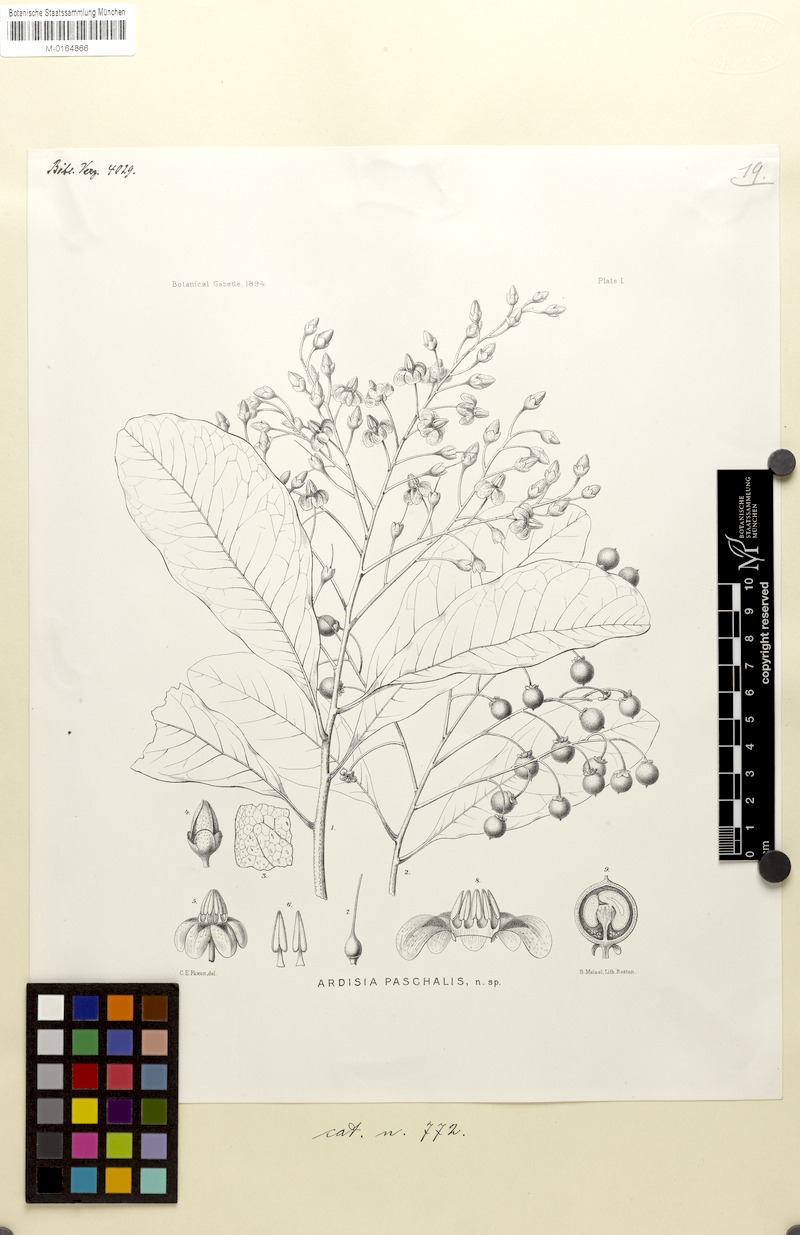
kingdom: Plantae
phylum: Tracheophyta
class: Magnoliopsida
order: Ericales
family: Primulaceae
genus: Ardisia
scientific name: Ardisia paschalis
